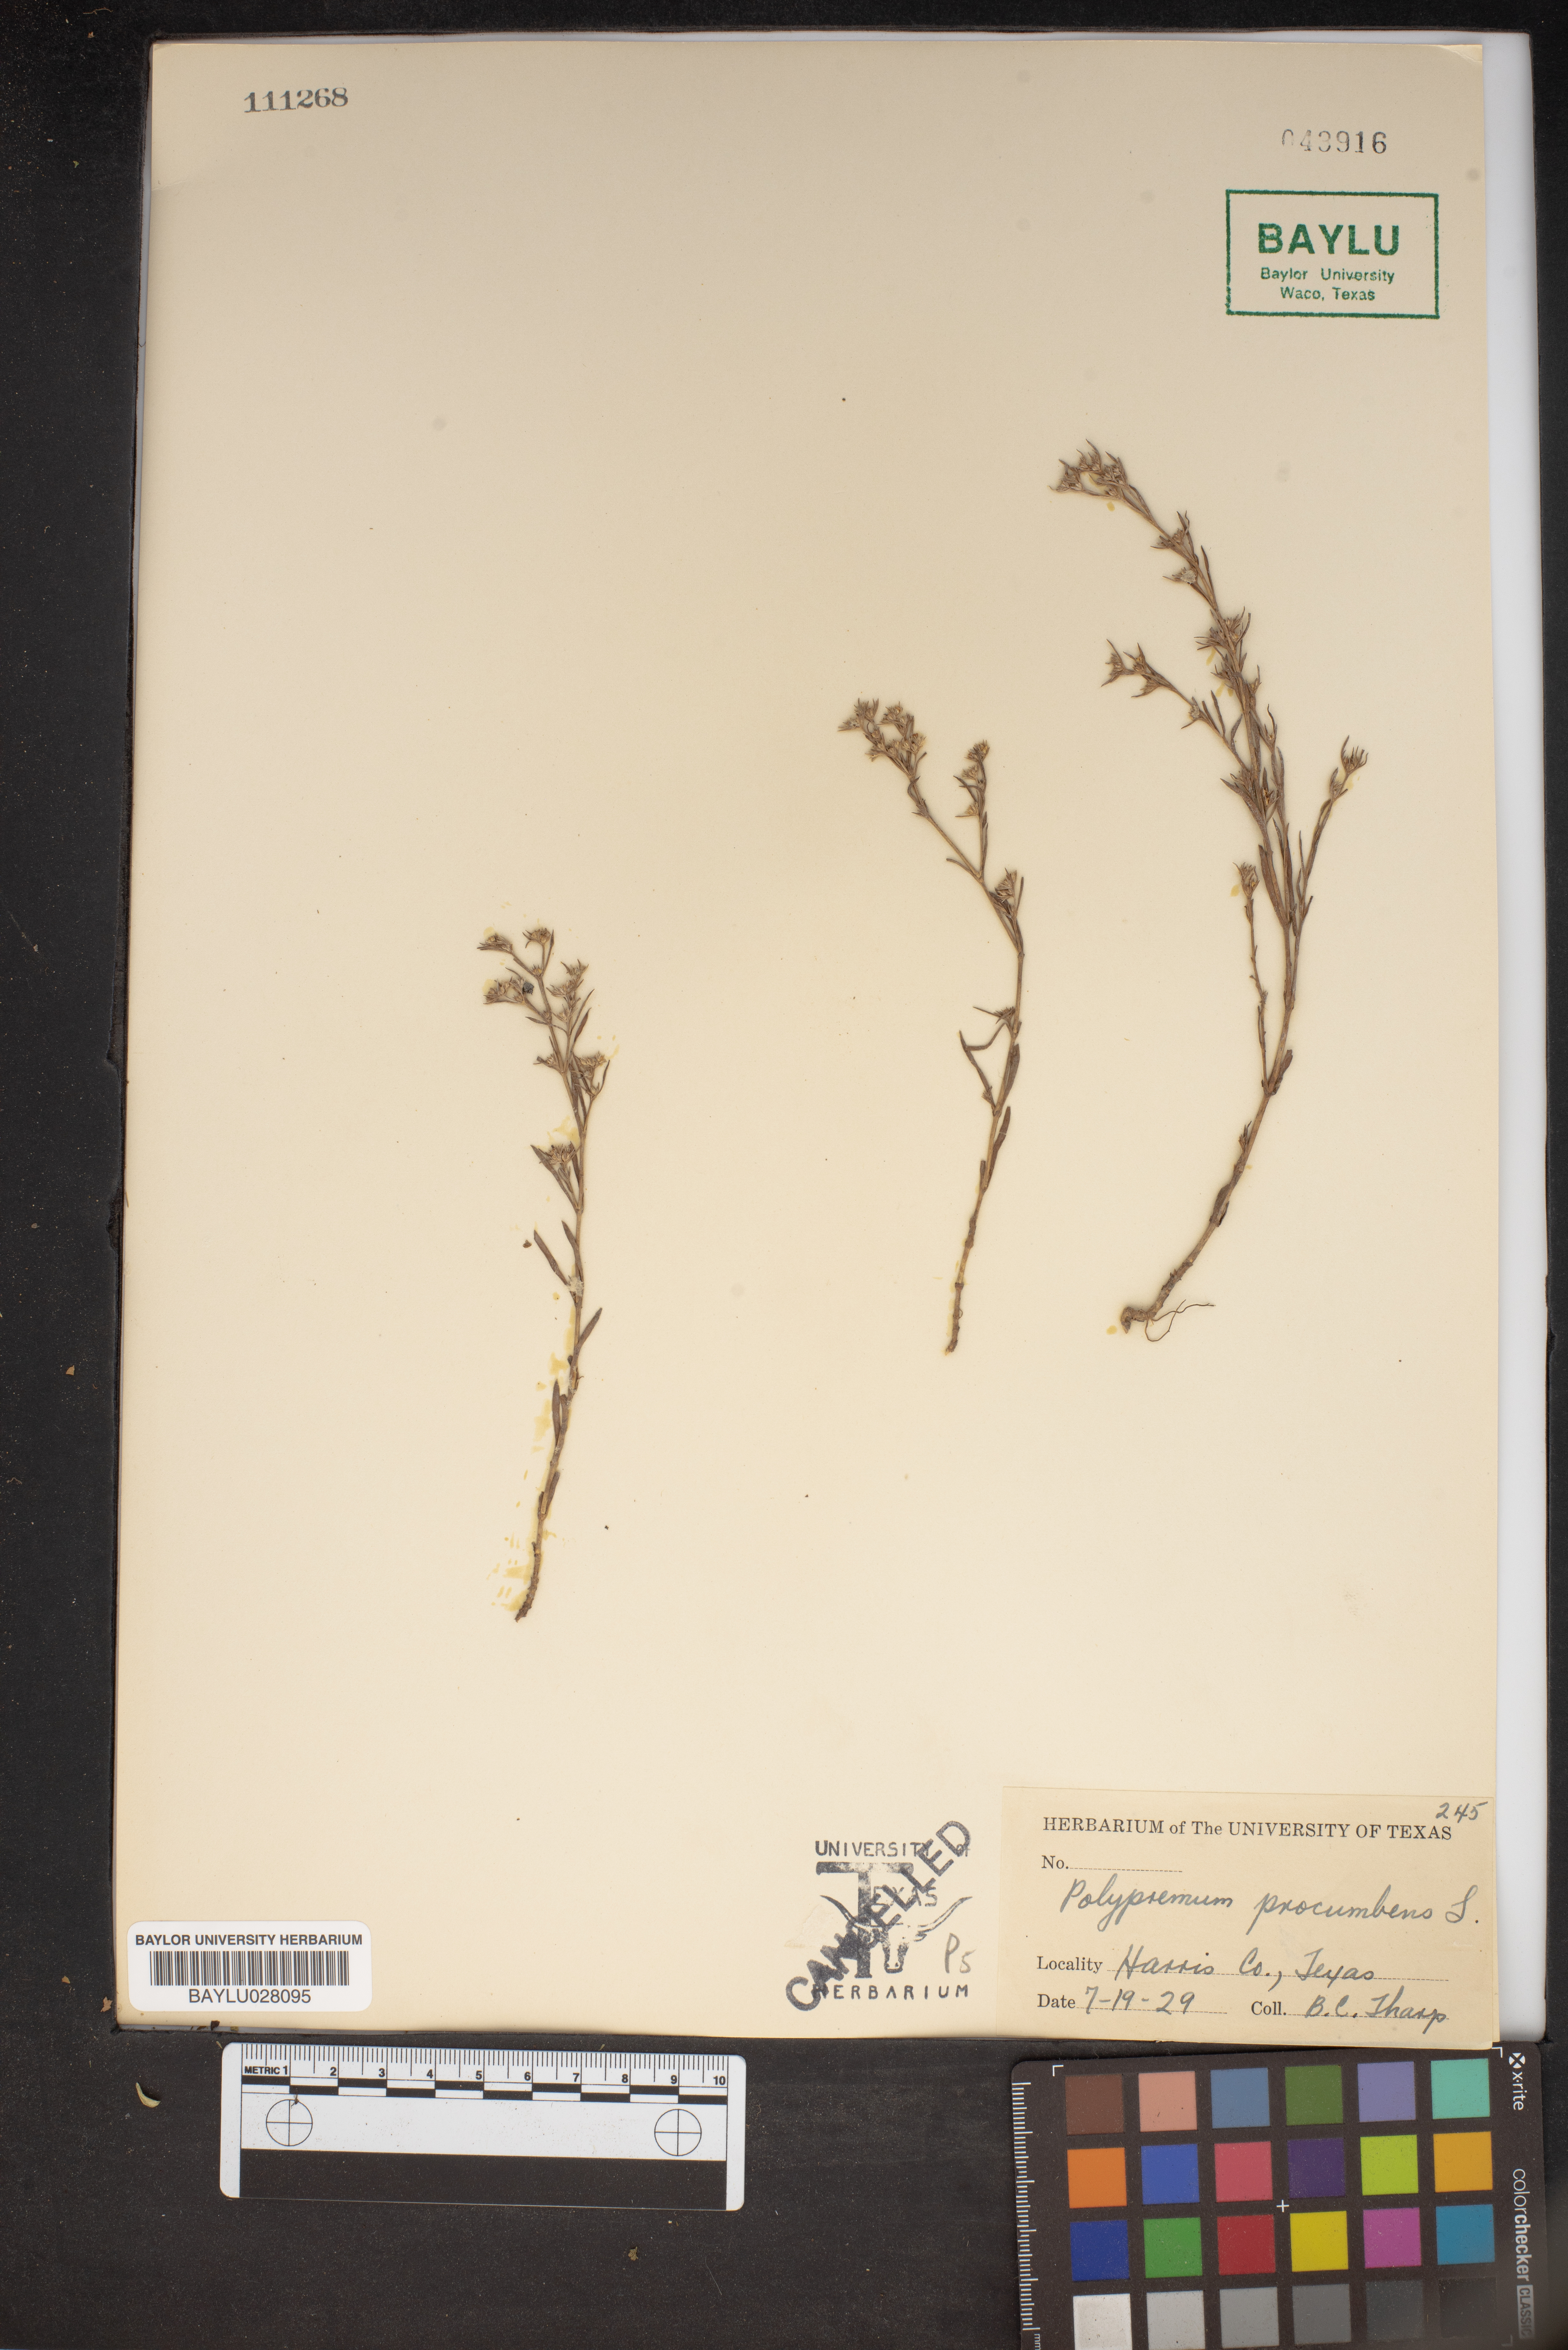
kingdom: Plantae
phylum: Tracheophyta
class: Magnoliopsida
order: Lamiales
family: Tetrachondraceae
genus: Polypremum
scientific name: Polypremum procumbens
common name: Juniper-leaf
